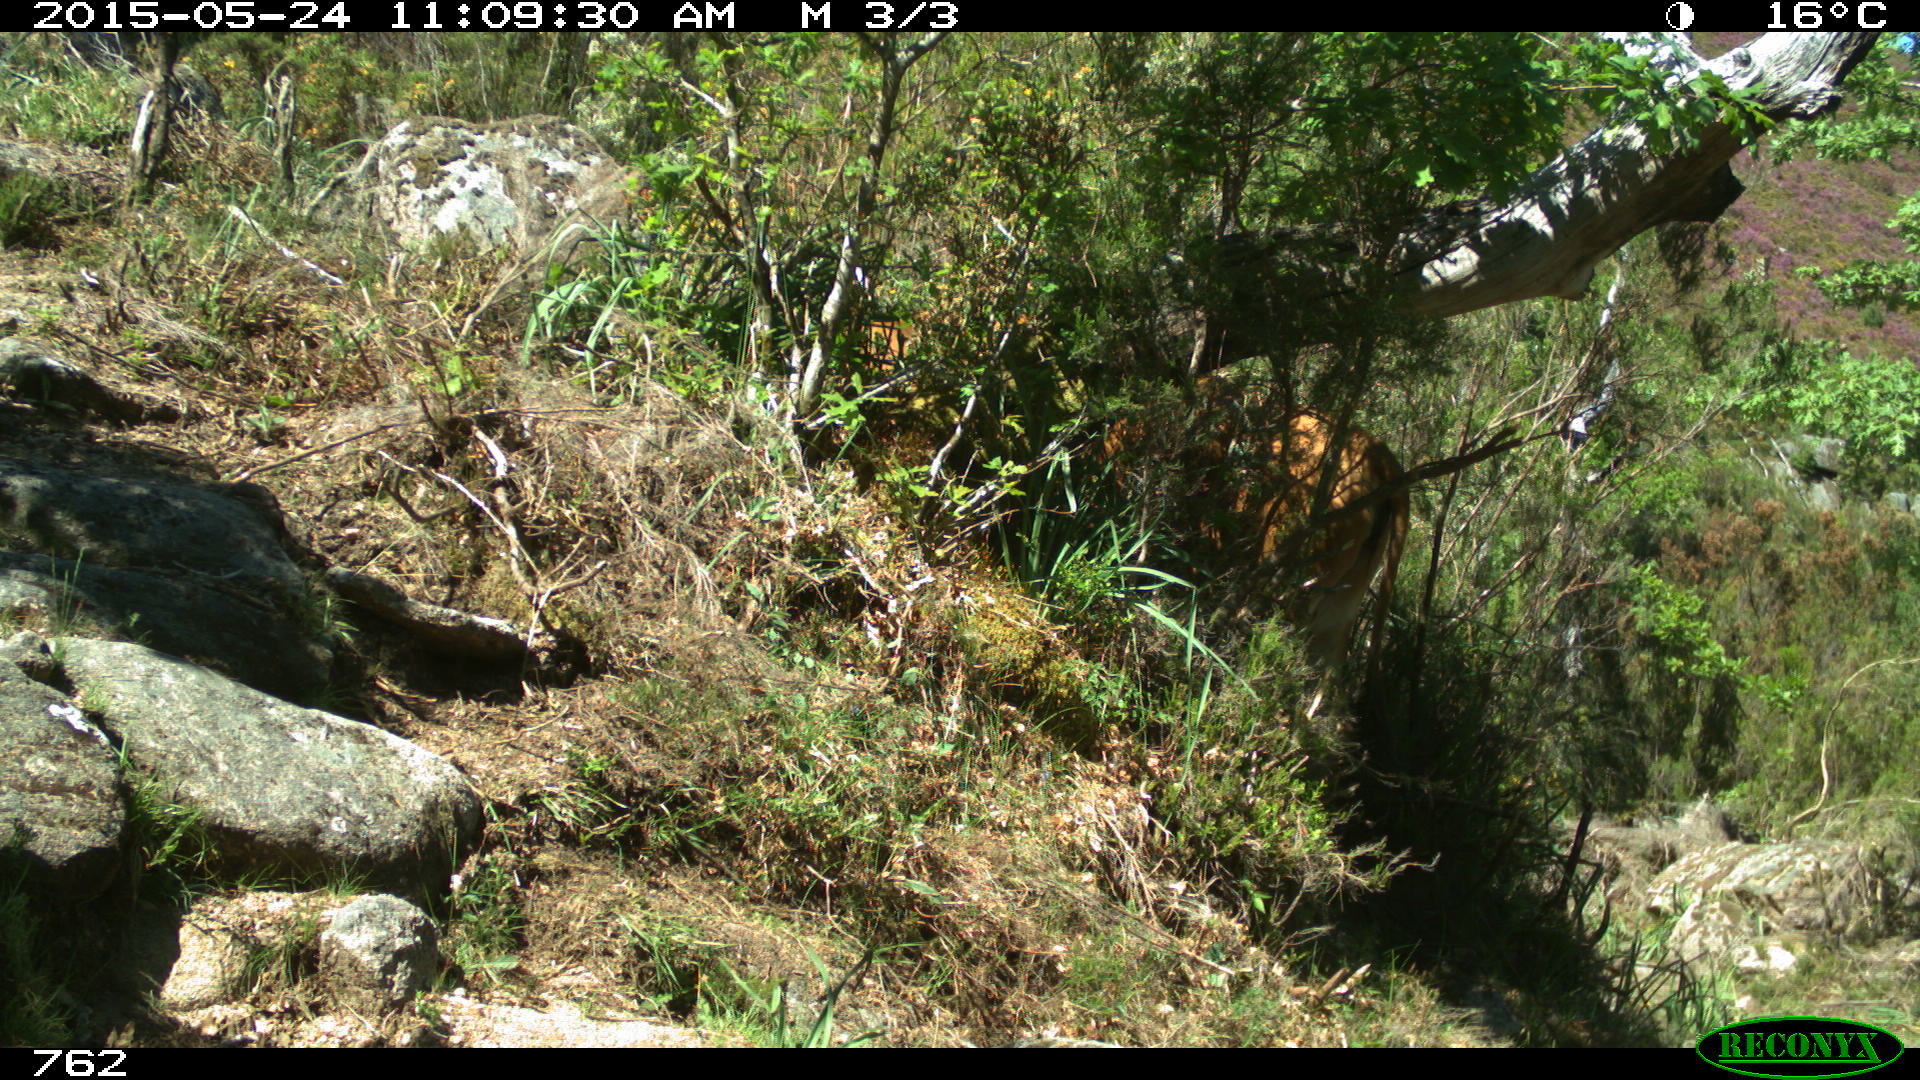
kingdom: Animalia
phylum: Chordata
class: Mammalia
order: Artiodactyla
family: Bovidae
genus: Bos
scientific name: Bos taurus
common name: Domesticated cattle
